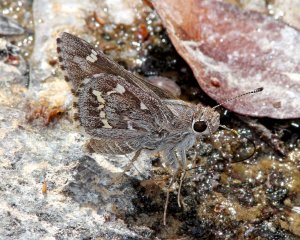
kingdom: Animalia
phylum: Arthropoda
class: Insecta
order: Lepidoptera
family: Hesperiidae
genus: Atrytonopsis
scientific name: Atrytonopsis python
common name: Python Skipper
